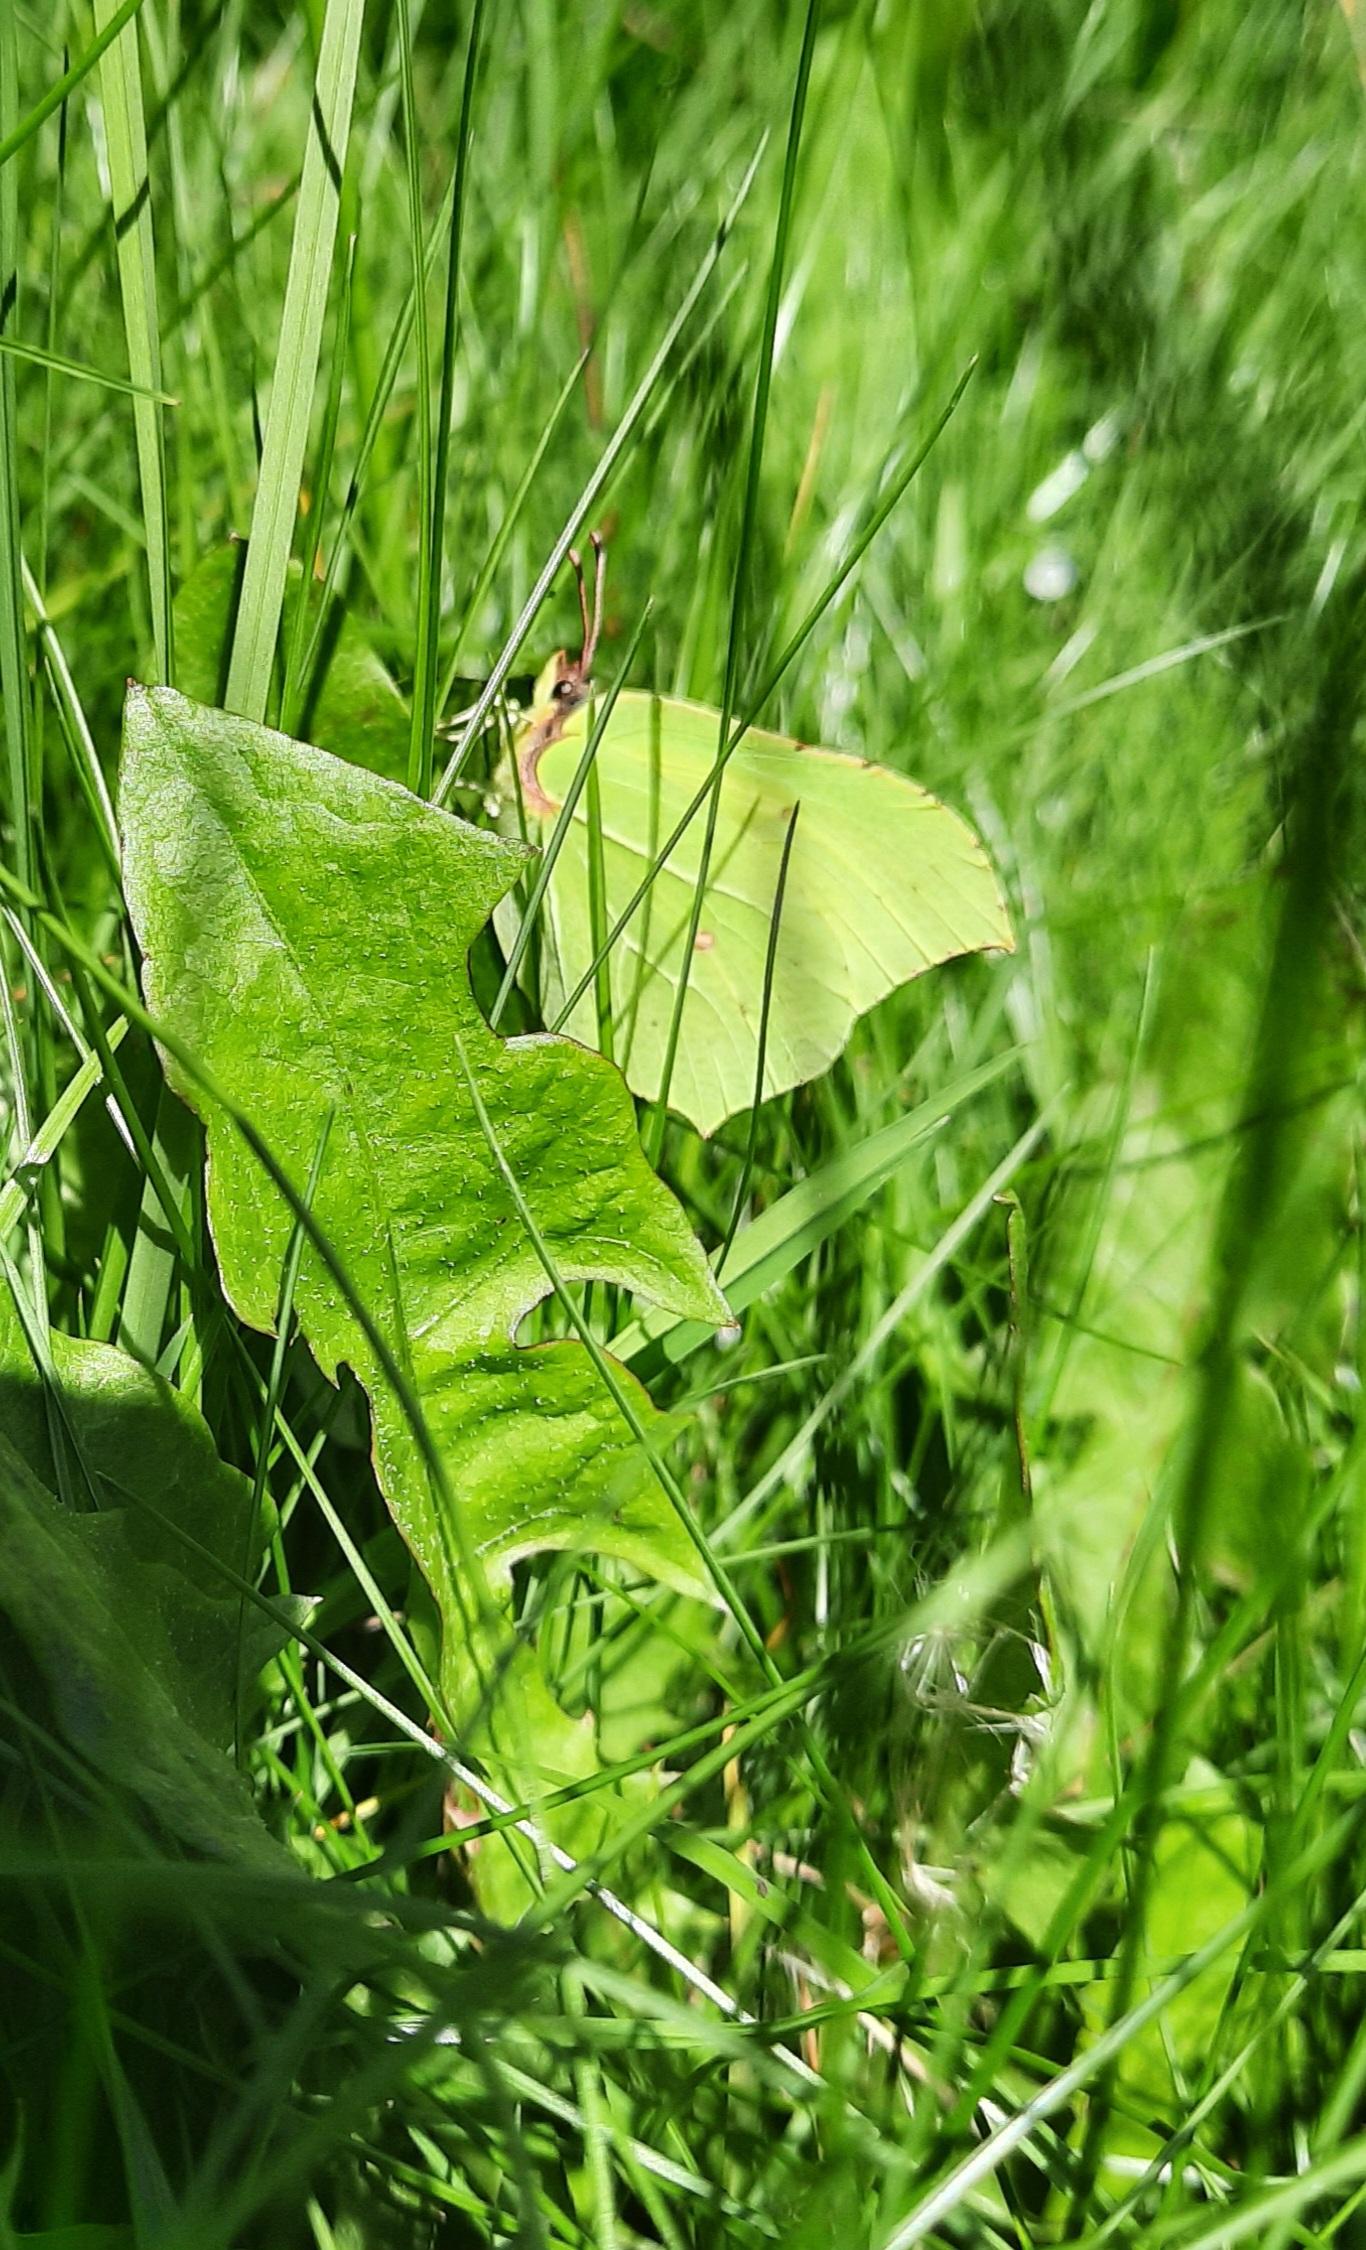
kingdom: Animalia
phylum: Arthropoda
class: Insecta
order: Lepidoptera
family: Pieridae
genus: Gonepteryx
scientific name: Gonepteryx rhamni
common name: Citronsommerfugl
